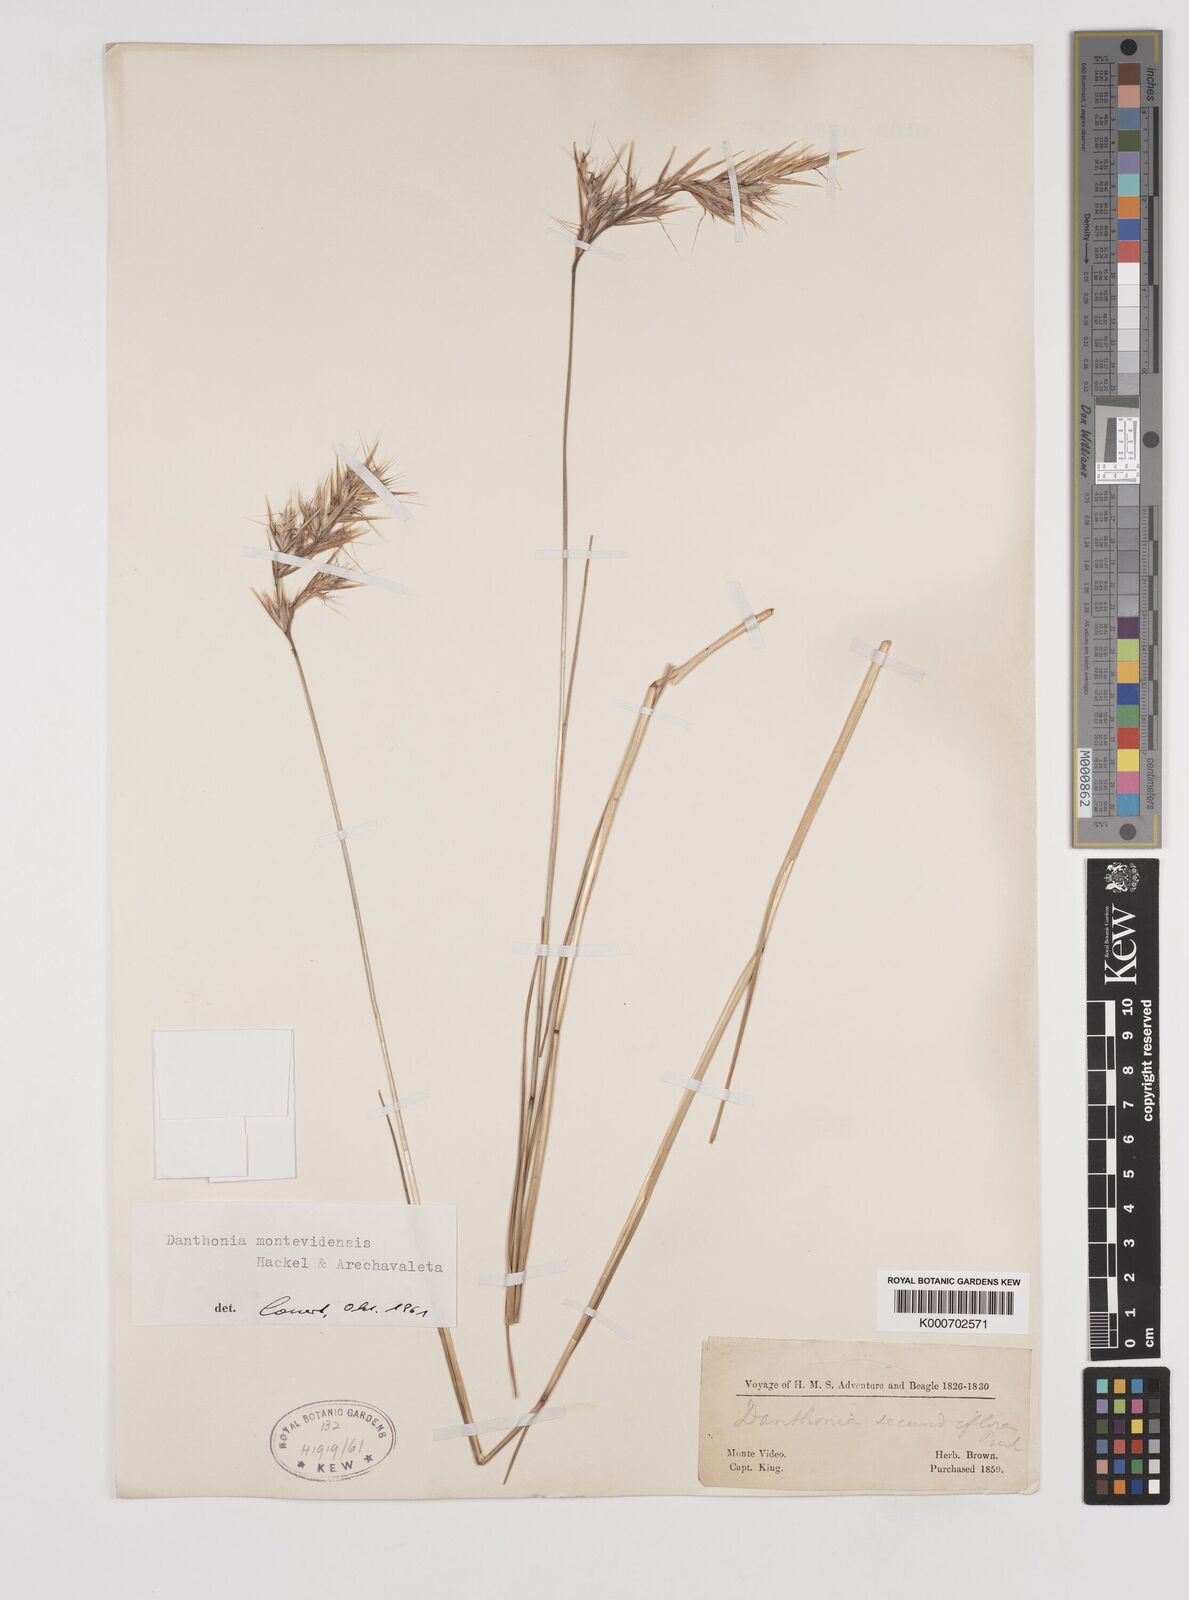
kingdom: Plantae
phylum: Tracheophyta
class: Liliopsida
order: Poales
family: Poaceae
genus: Danthonia
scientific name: Danthonia montevidensis
